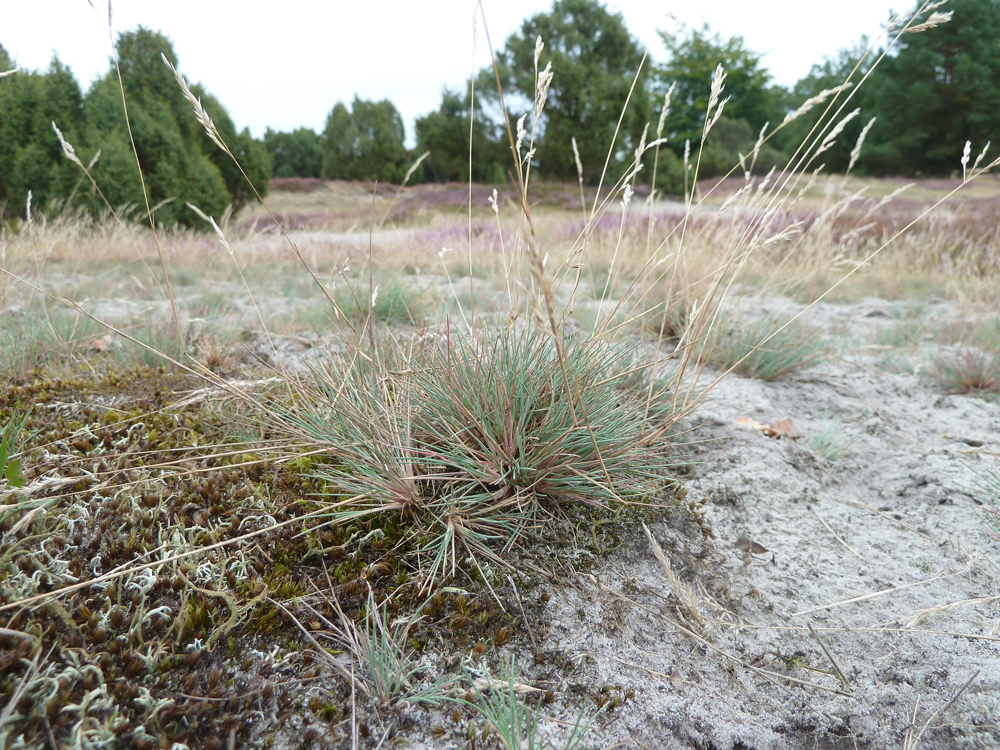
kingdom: Plantae
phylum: Tracheophyta
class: Liliopsida
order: Poales
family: Poaceae
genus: Corynephorus
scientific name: Corynephorus canescens
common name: Grey hair-grass
